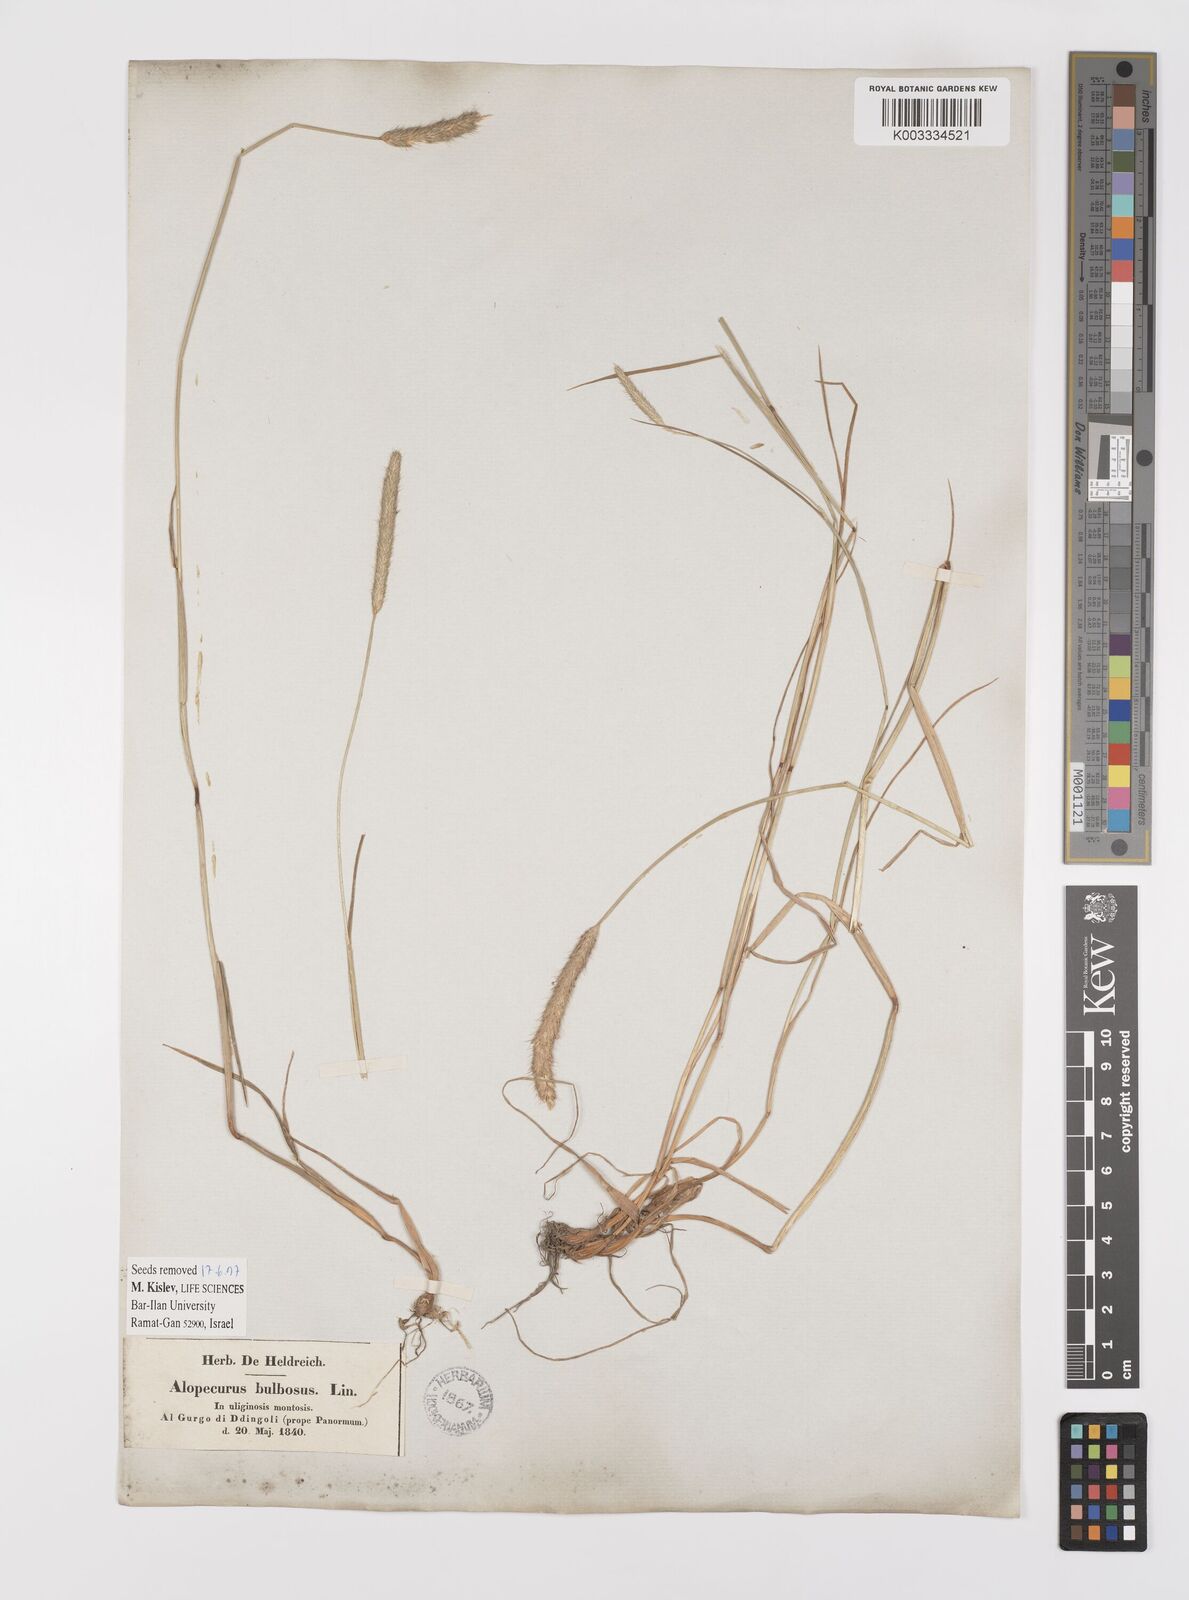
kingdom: Plantae
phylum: Tracheophyta
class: Liliopsida
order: Poales
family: Poaceae
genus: Alopecurus
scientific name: Alopecurus bulbosus
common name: Bulbous foxtail
